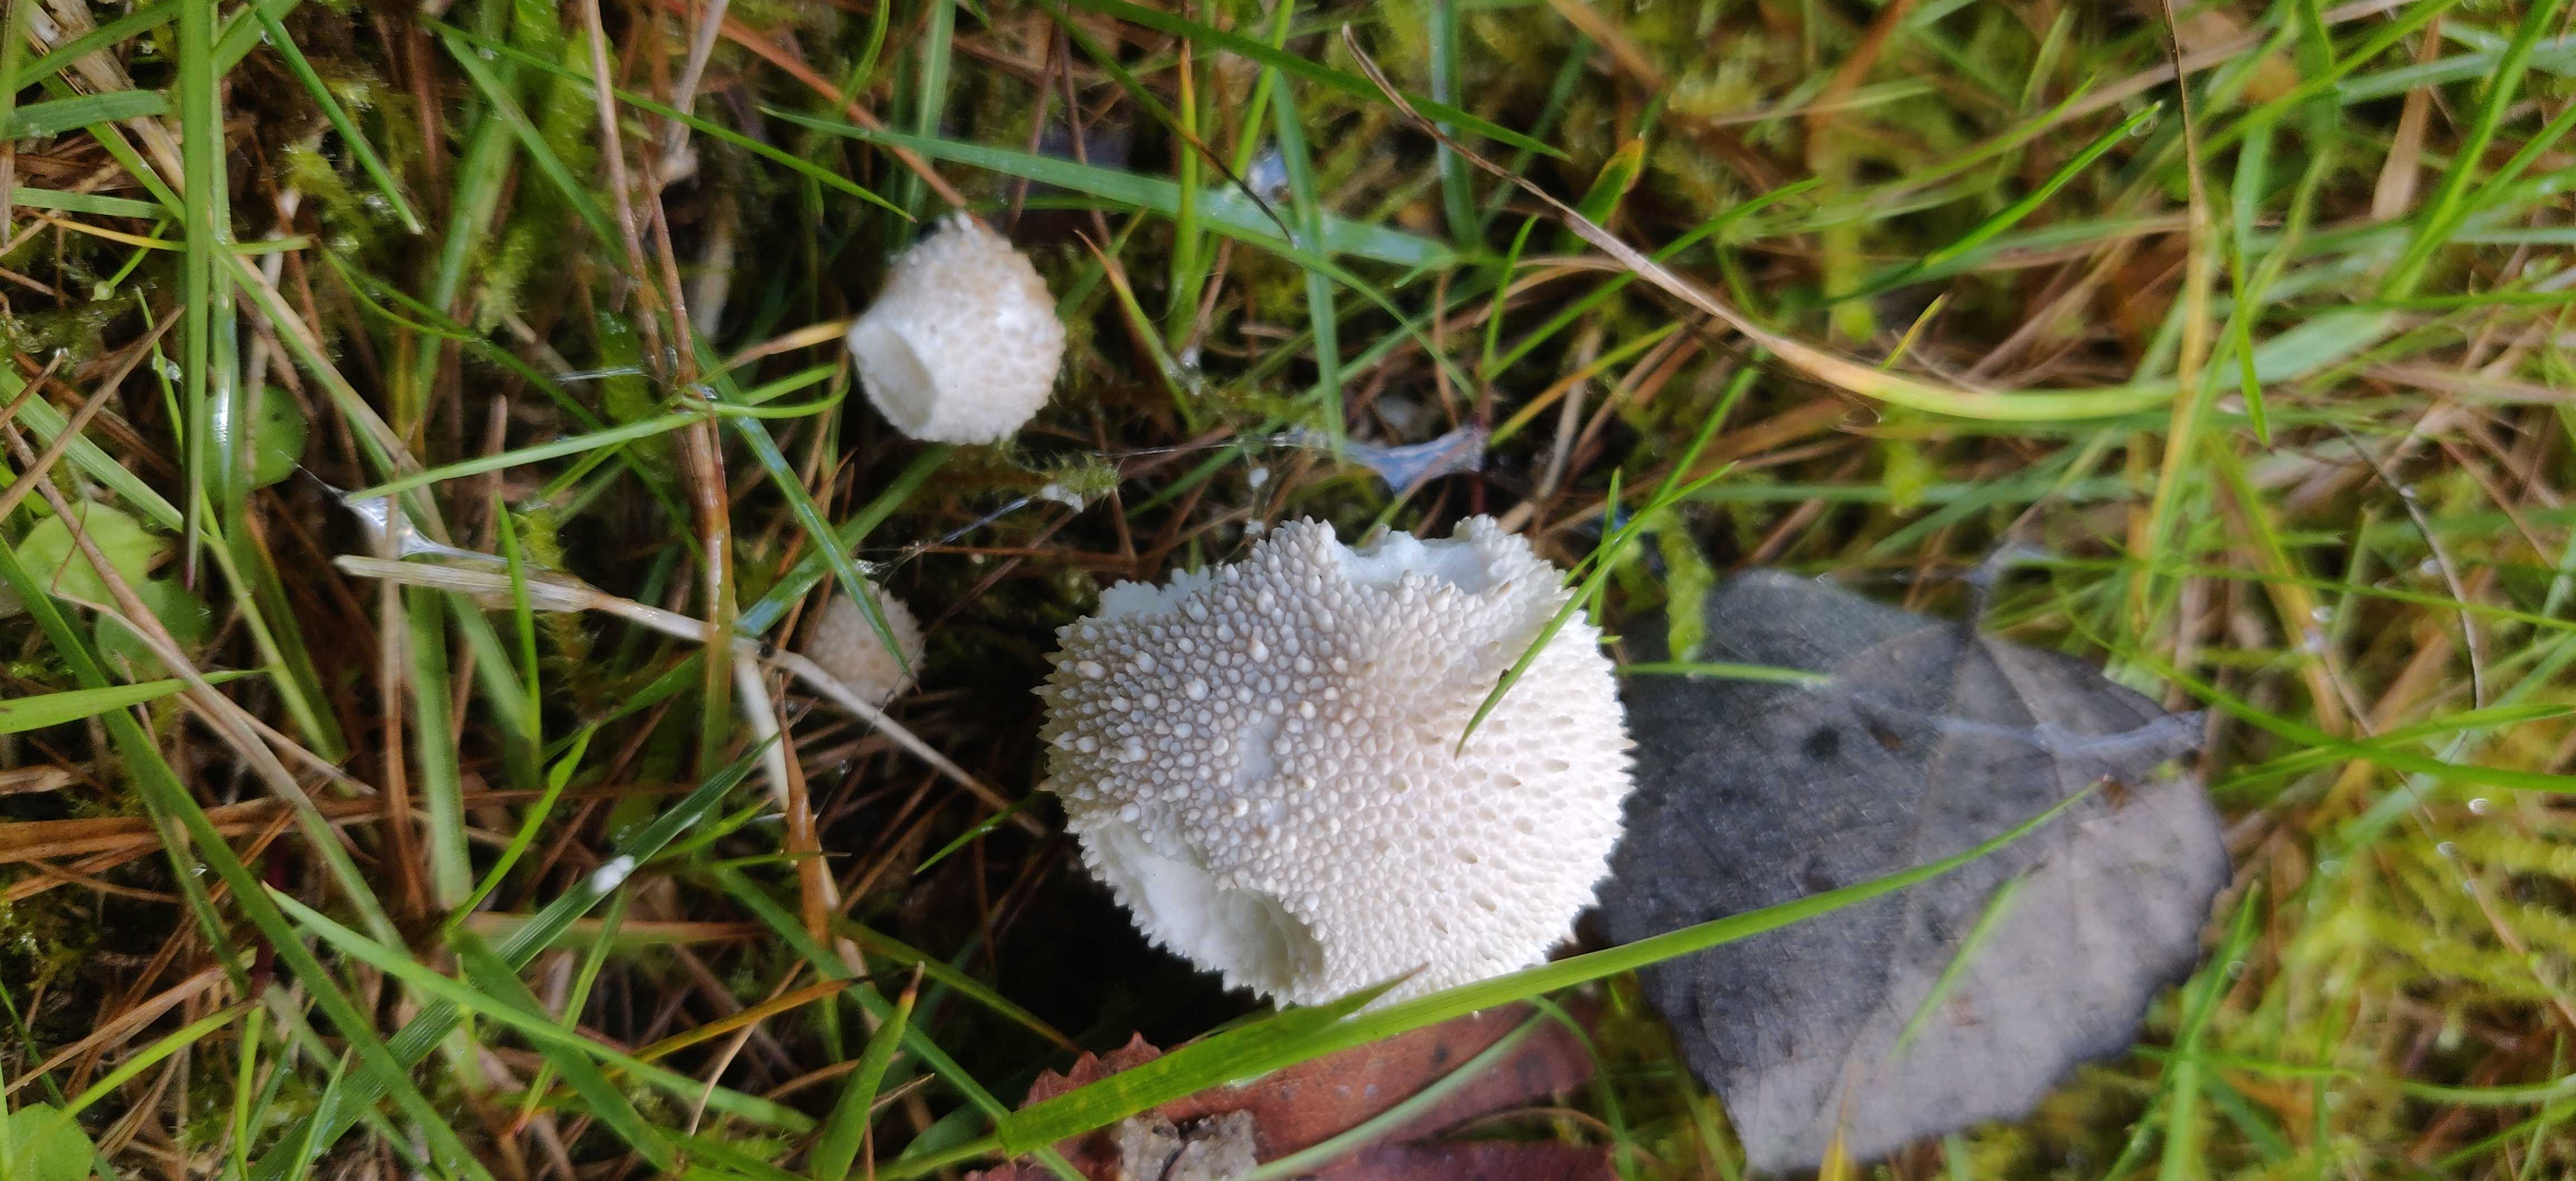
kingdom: Fungi
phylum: Basidiomycota
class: Agaricomycetes
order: Agaricales
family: Lycoperdaceae
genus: Lycoperdon
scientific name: Lycoperdon perlatum
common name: krystal-støvbold
